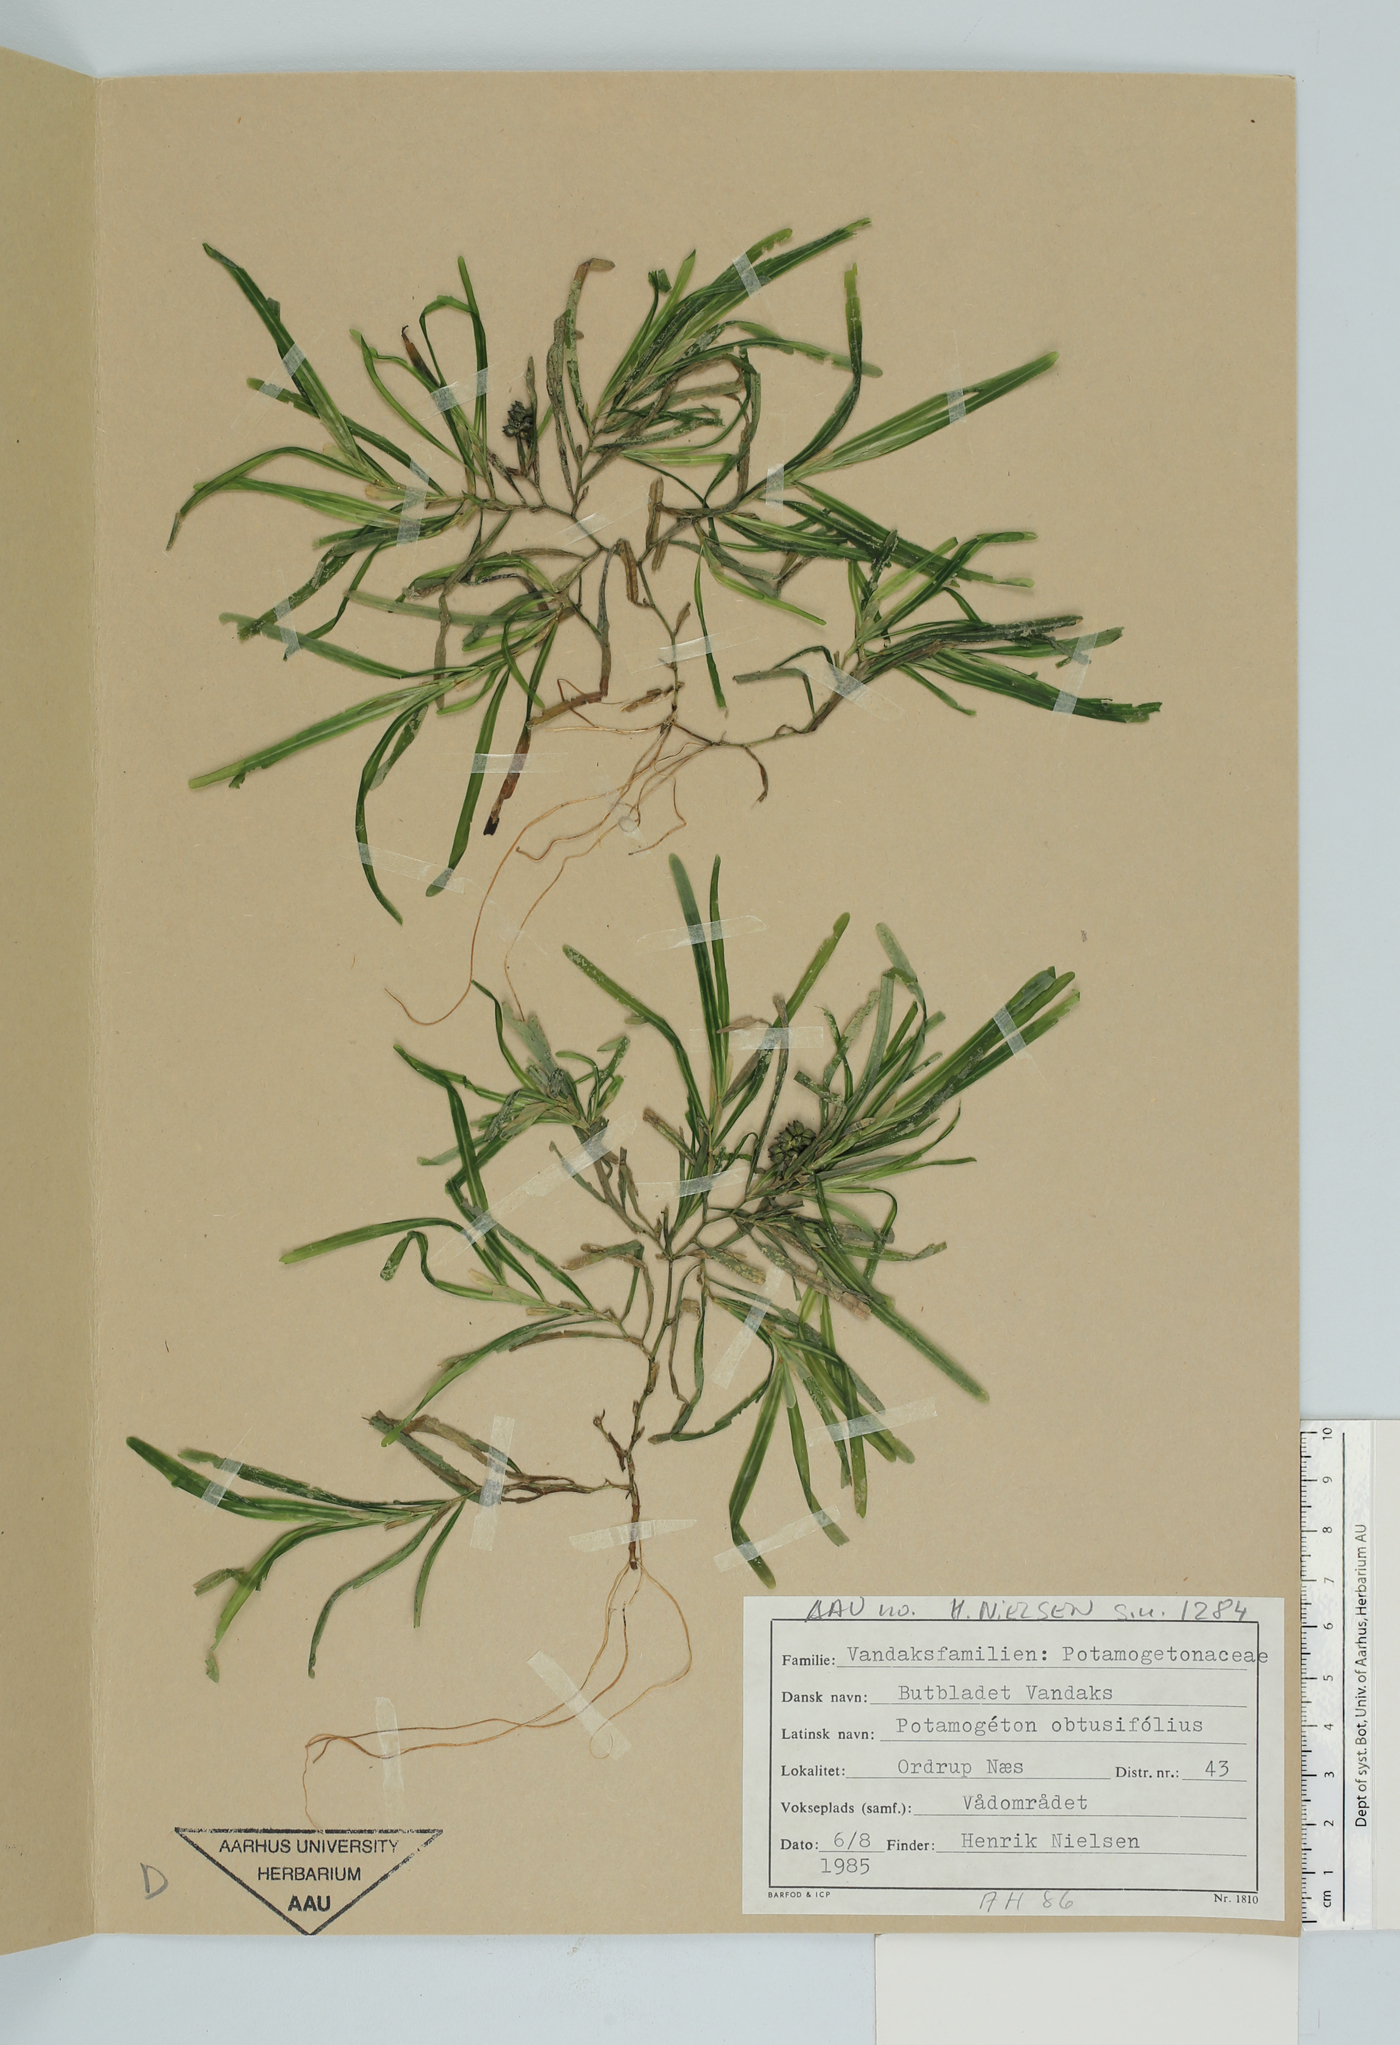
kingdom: Plantae
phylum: Tracheophyta
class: Liliopsida
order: Alismatales
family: Potamogetonaceae
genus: Potamogeton
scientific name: Potamogeton obtusifolius
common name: Blunt-leaved pondweed
